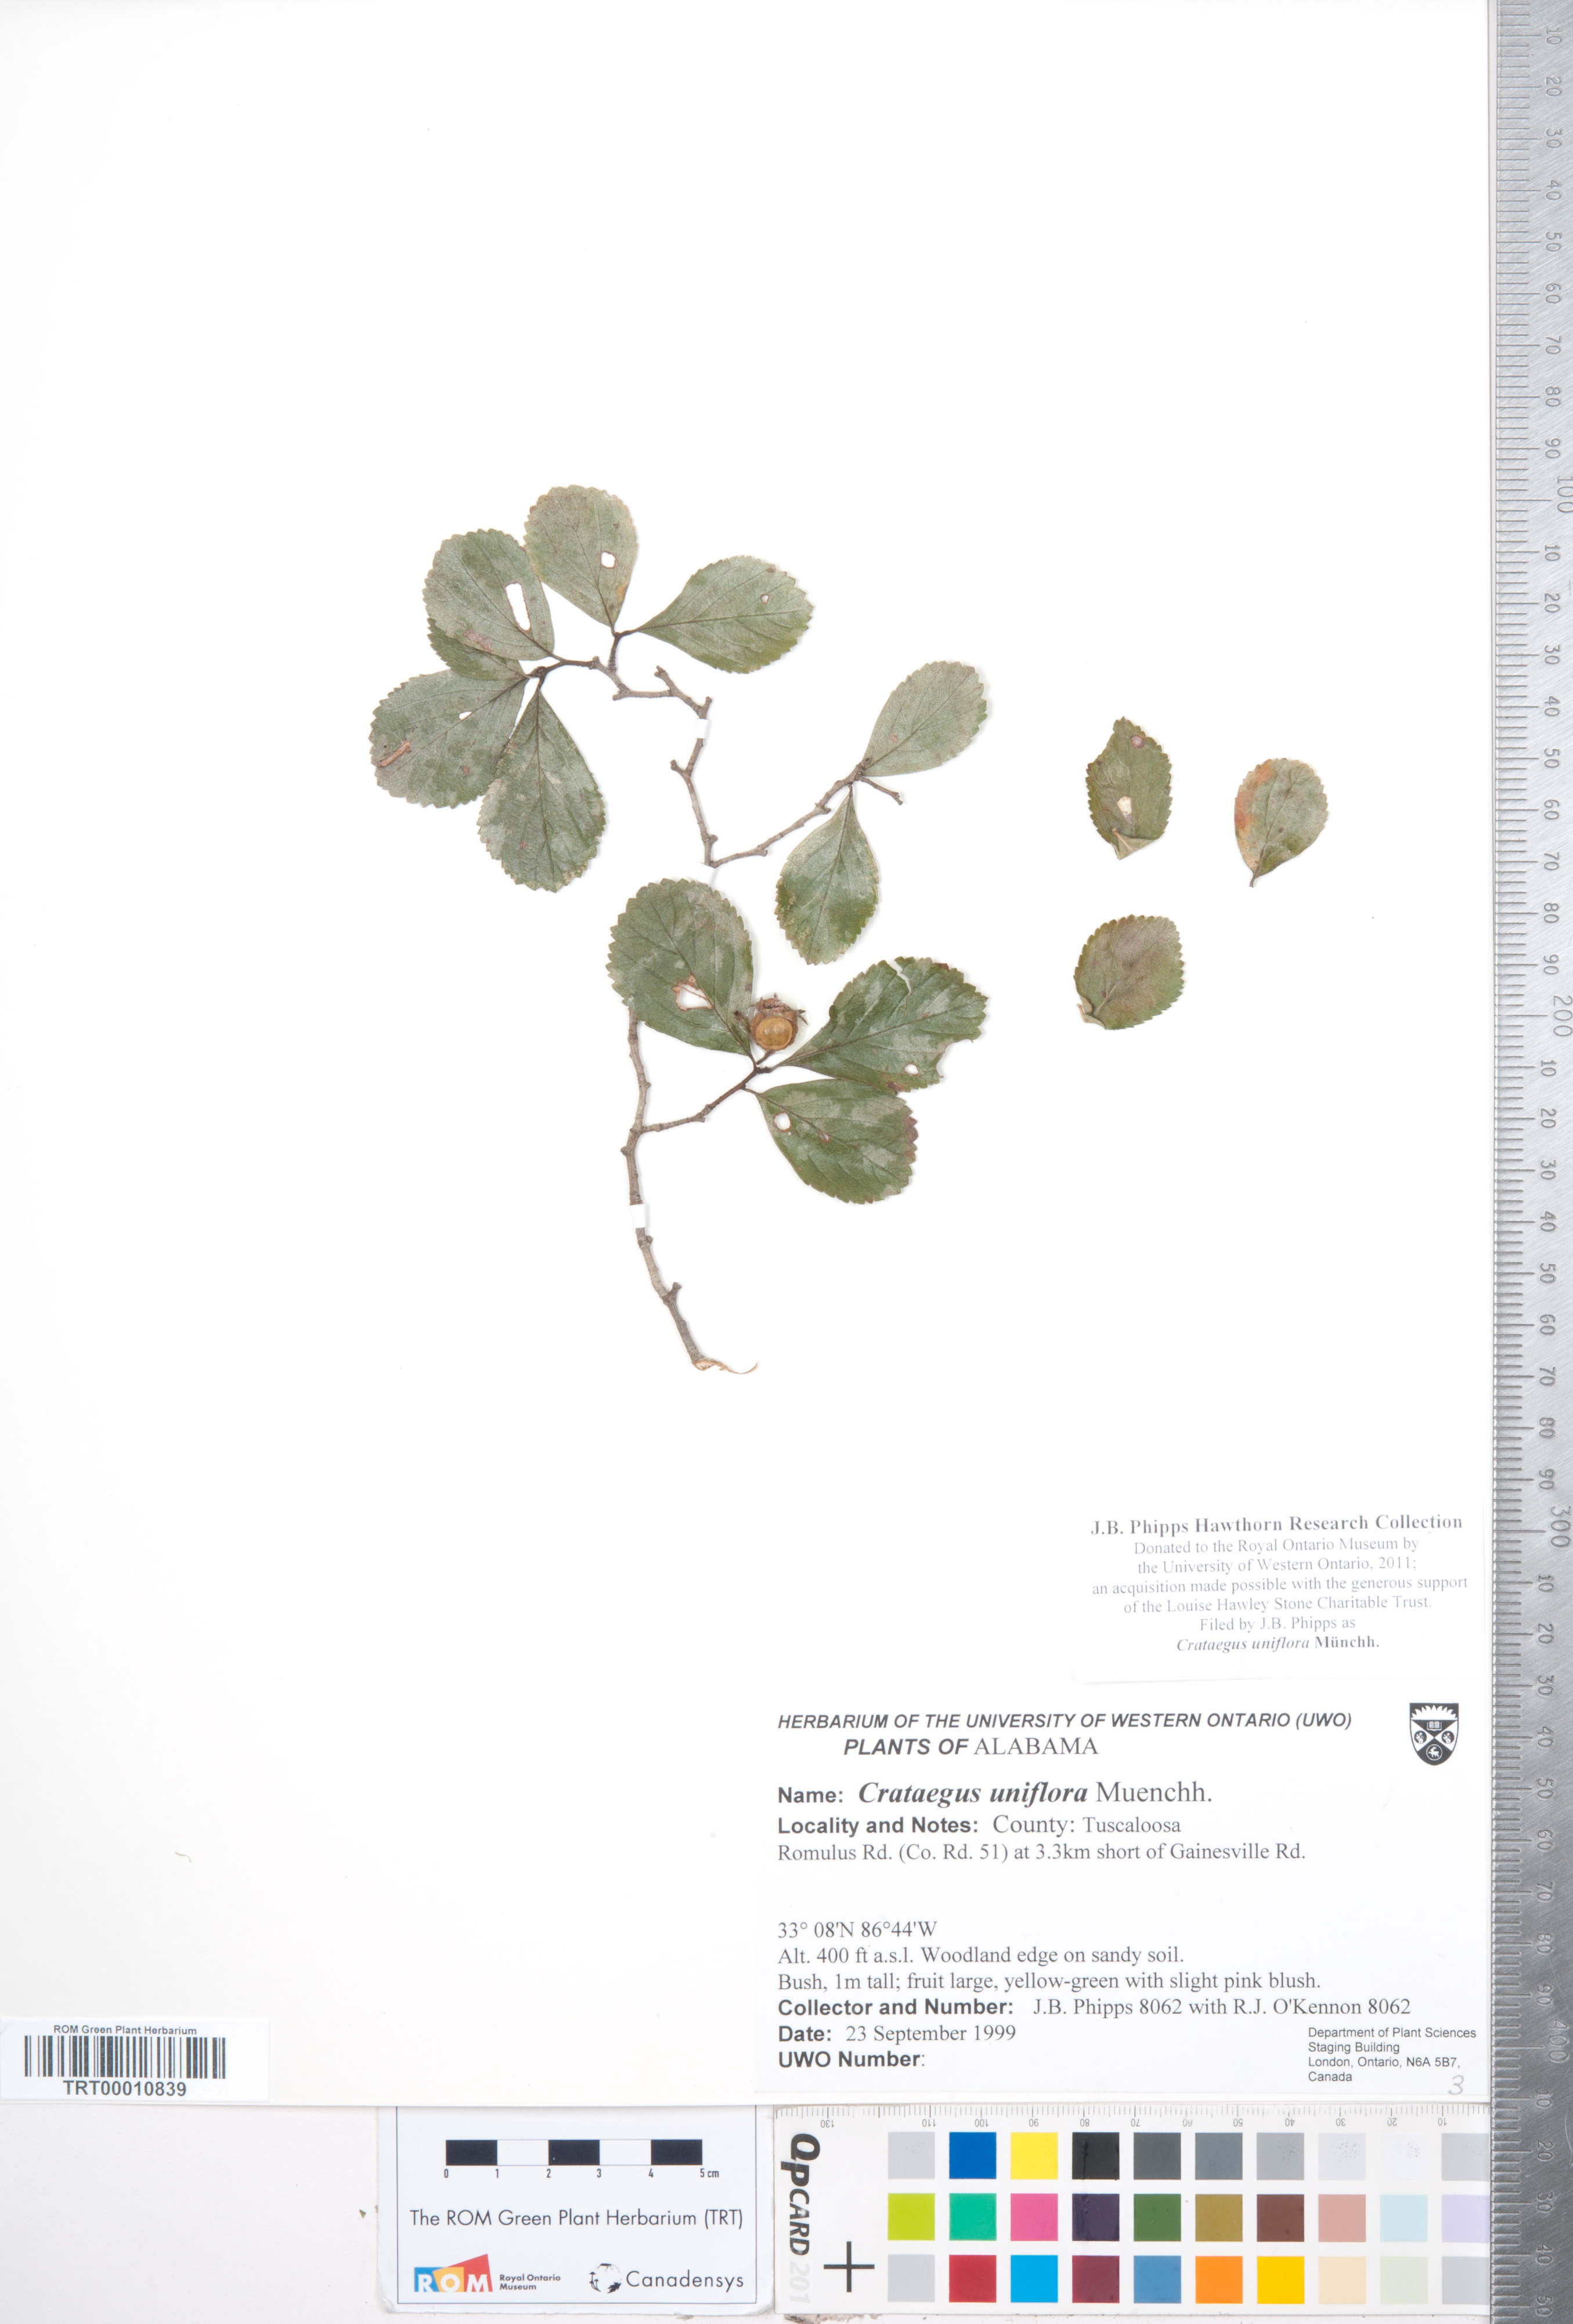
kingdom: Plantae
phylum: Tracheophyta
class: Magnoliopsida
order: Rosales
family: Rosaceae
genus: Crataegus
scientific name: Crataegus uniflora
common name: One-flower hawthorn
